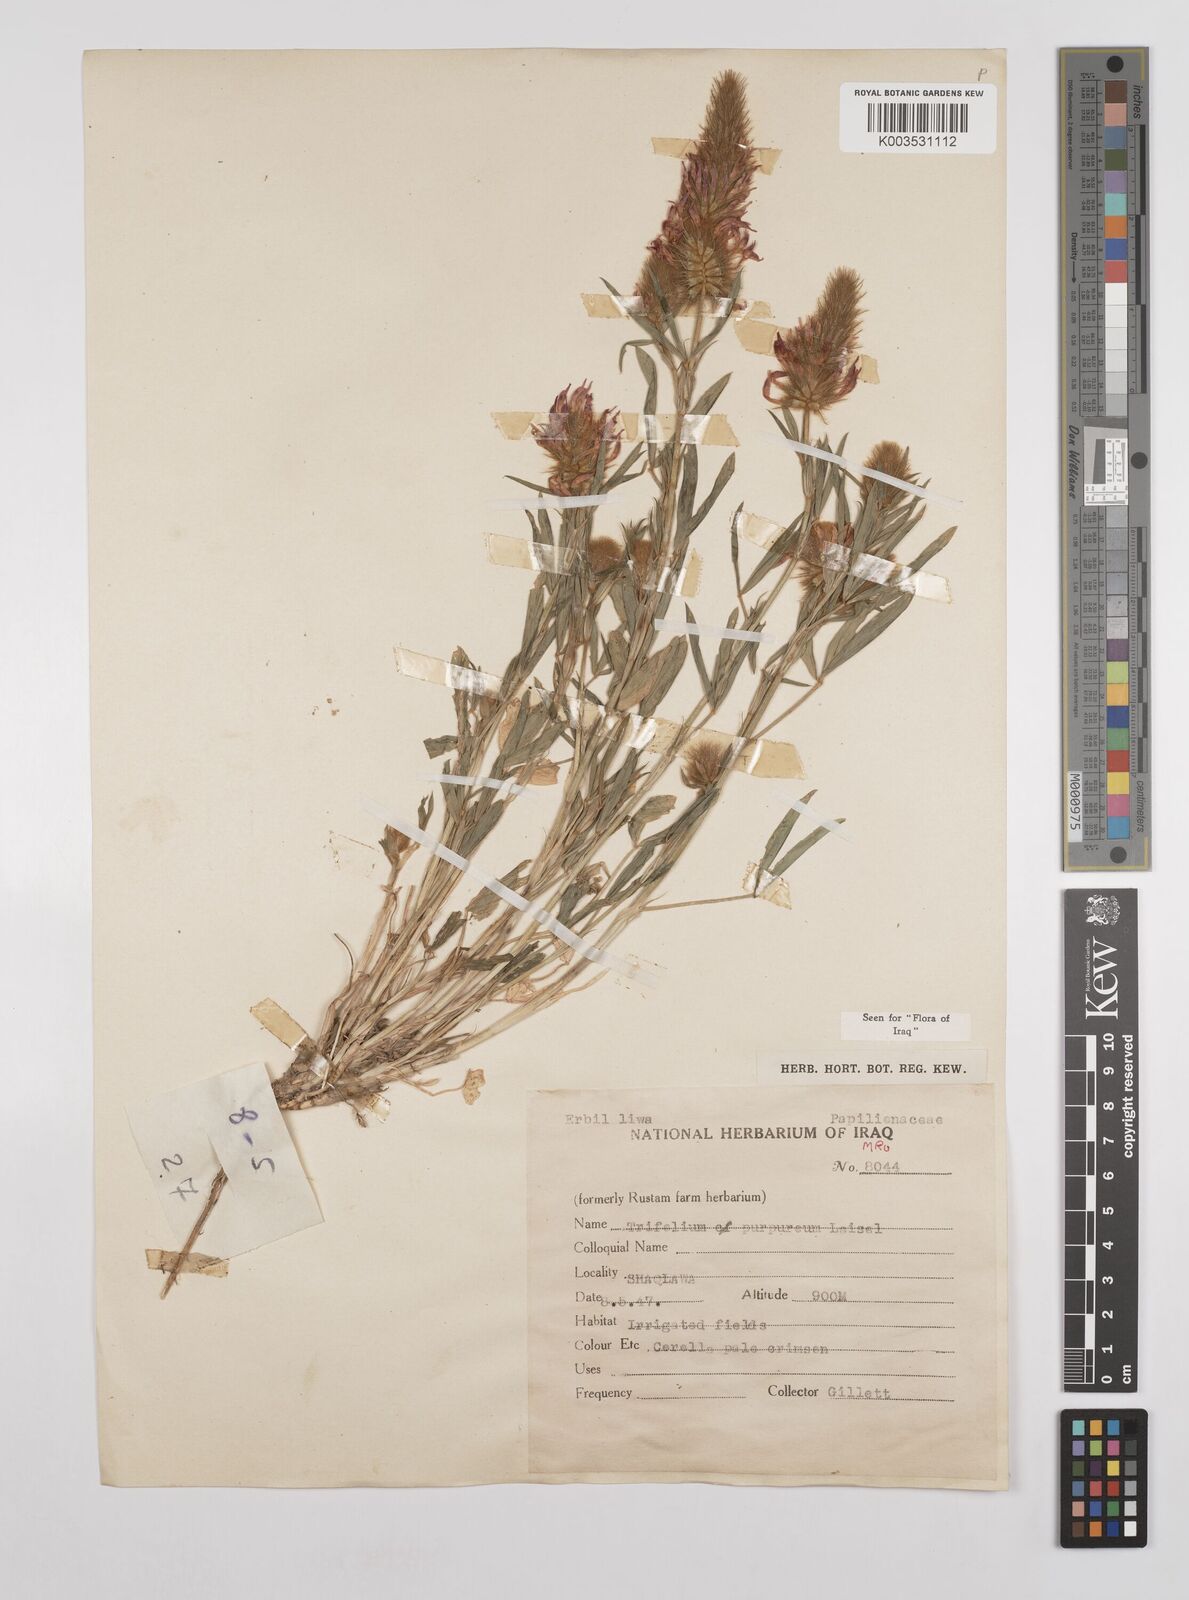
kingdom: Plantae
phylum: Tracheophyta
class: Magnoliopsida
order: Fabales
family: Fabaceae
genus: Trifolium
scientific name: Trifolium purpureum
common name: Purple clover
